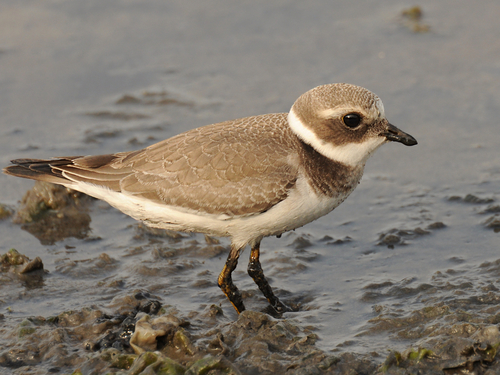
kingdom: Animalia
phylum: Chordata
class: Aves
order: Charadriiformes
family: Charadriidae
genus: Charadrius
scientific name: Charadrius hiaticula
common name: Common ringed plover
